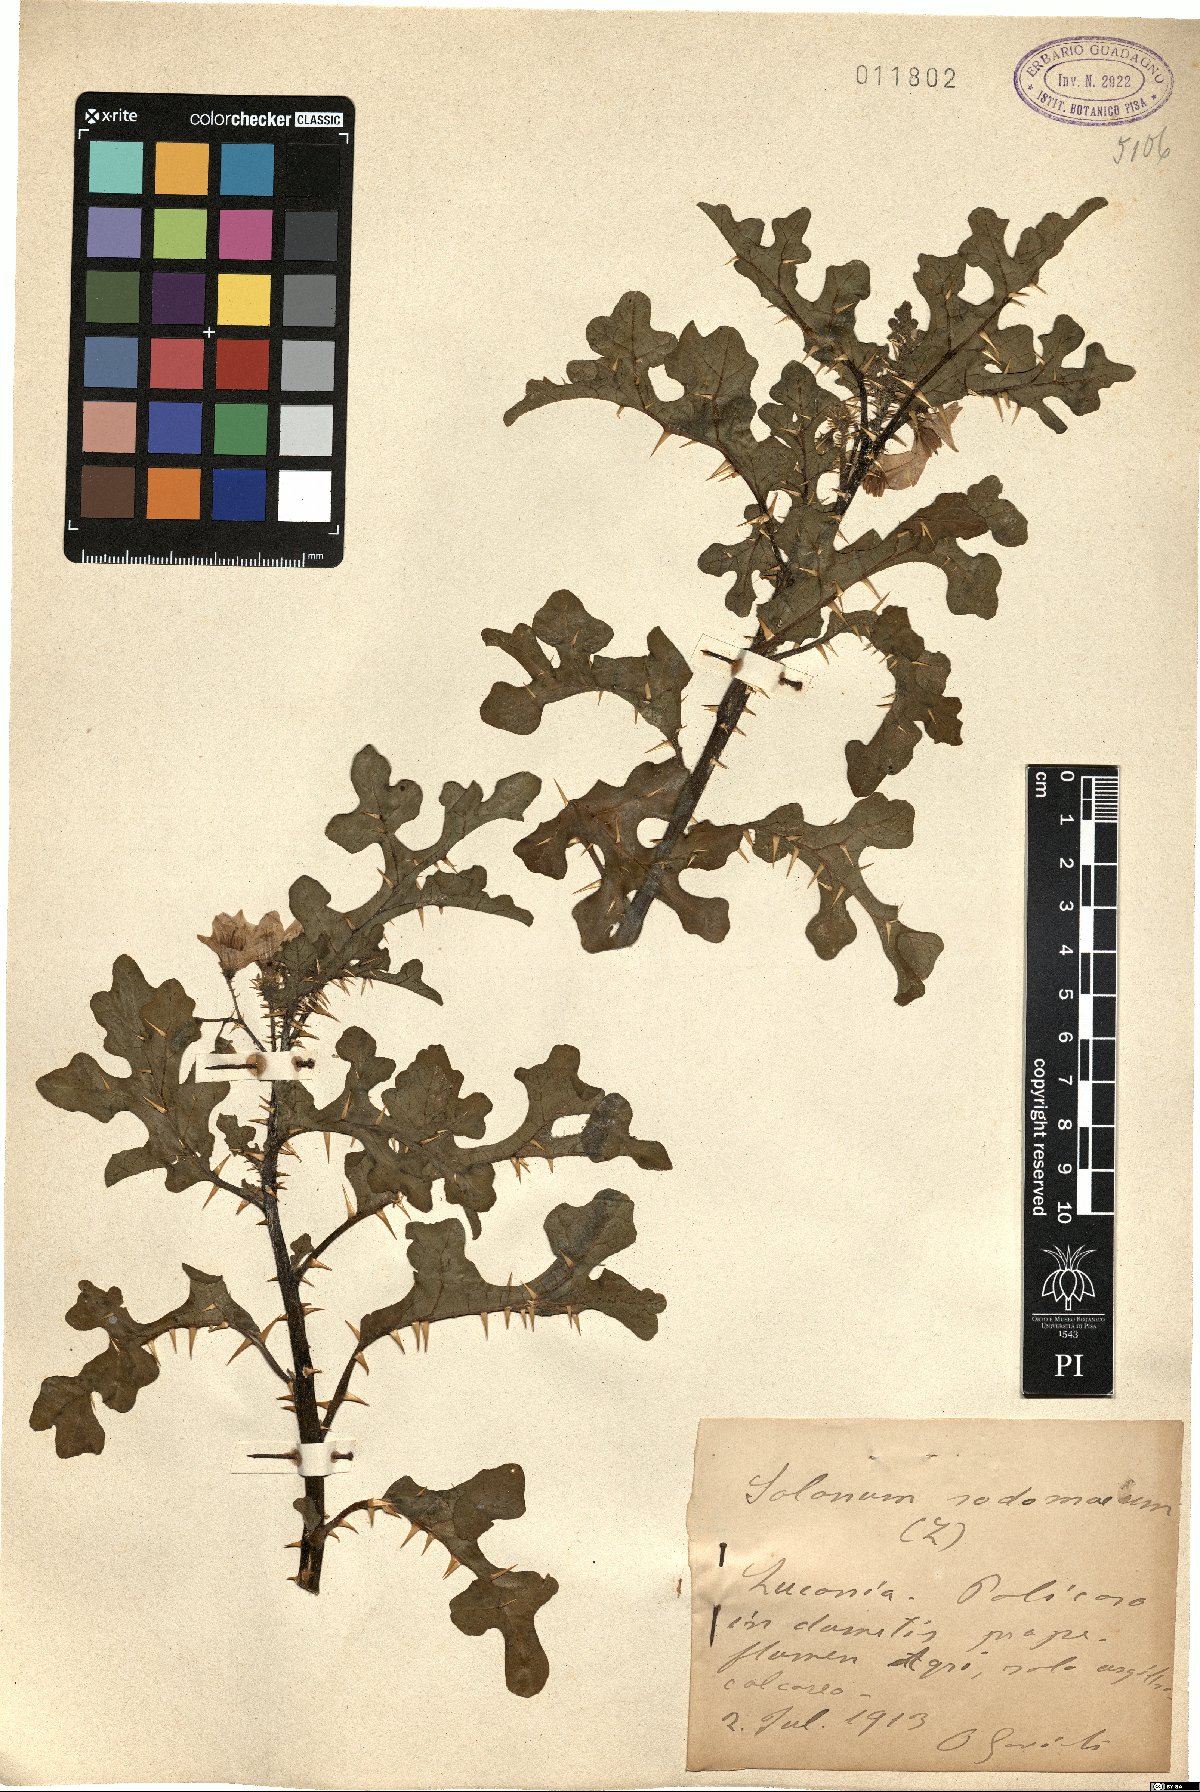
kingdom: Plantae
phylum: Tracheophyta
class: Magnoliopsida
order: Solanales
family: Solanaceae
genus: Solanum
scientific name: Solanum anguivi
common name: Forest bitterberry
